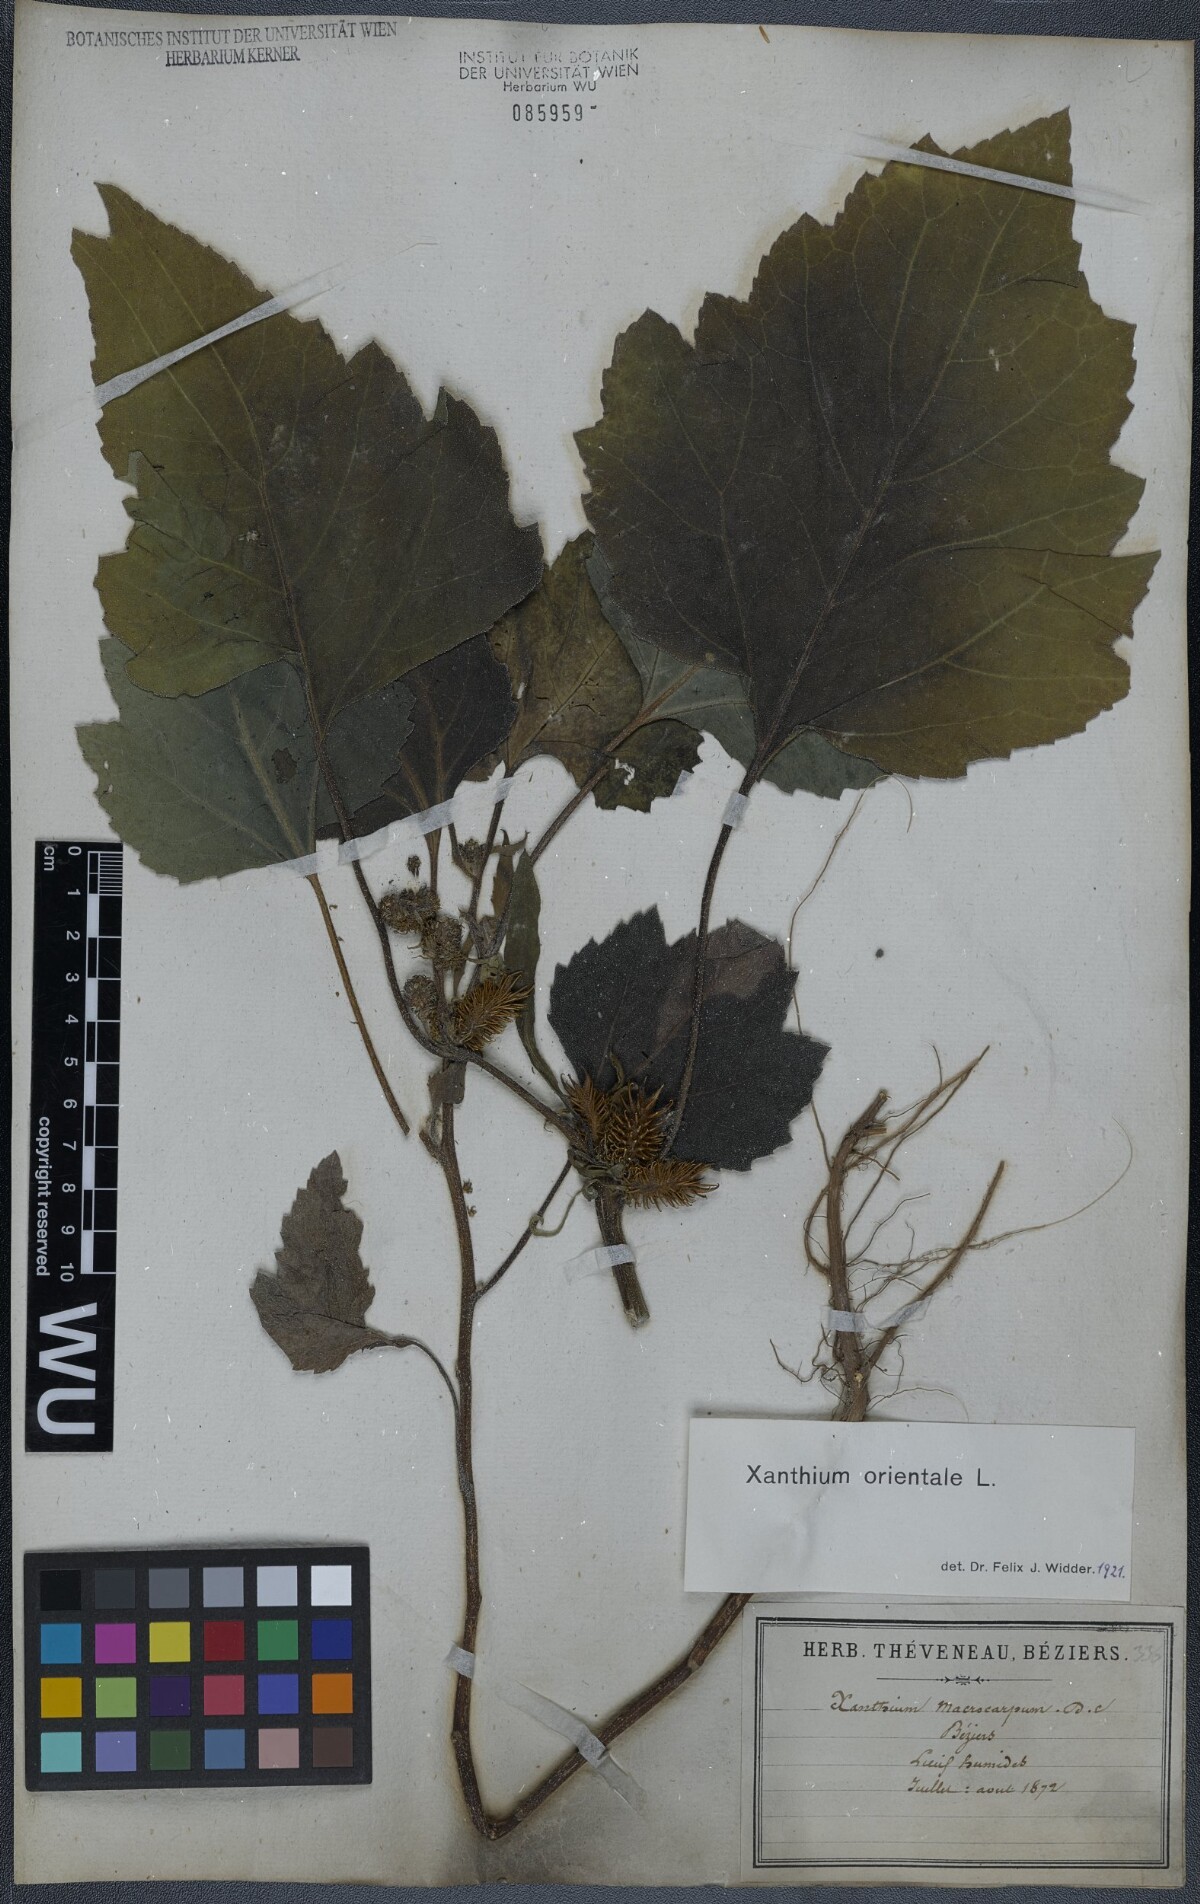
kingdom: Plantae
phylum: Tracheophyta
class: Magnoliopsida
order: Asterales
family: Asteraceae
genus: Xanthium
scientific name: Xanthium orientale
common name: Californian burr
